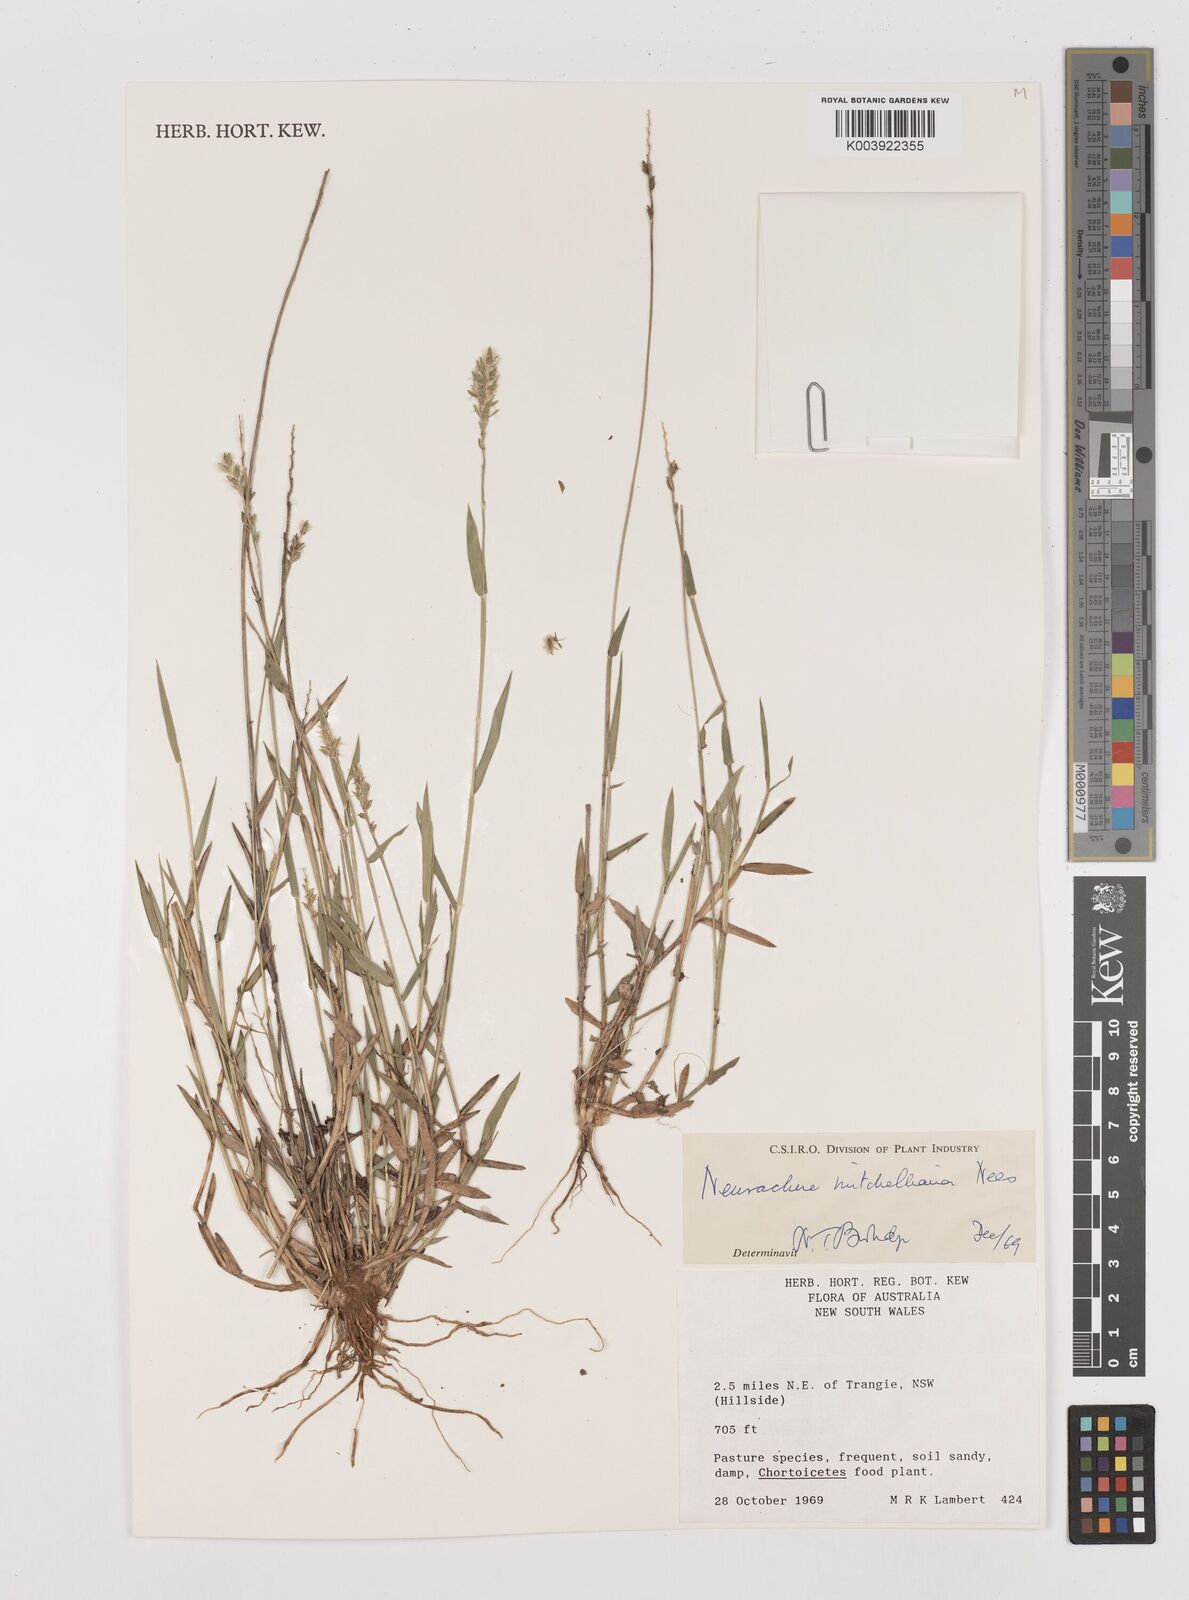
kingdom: Plantae
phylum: Tracheophyta
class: Liliopsida
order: Poales
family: Poaceae
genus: Thyridolepis
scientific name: Thyridolepis mitchelliana
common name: Rock tassel grass
